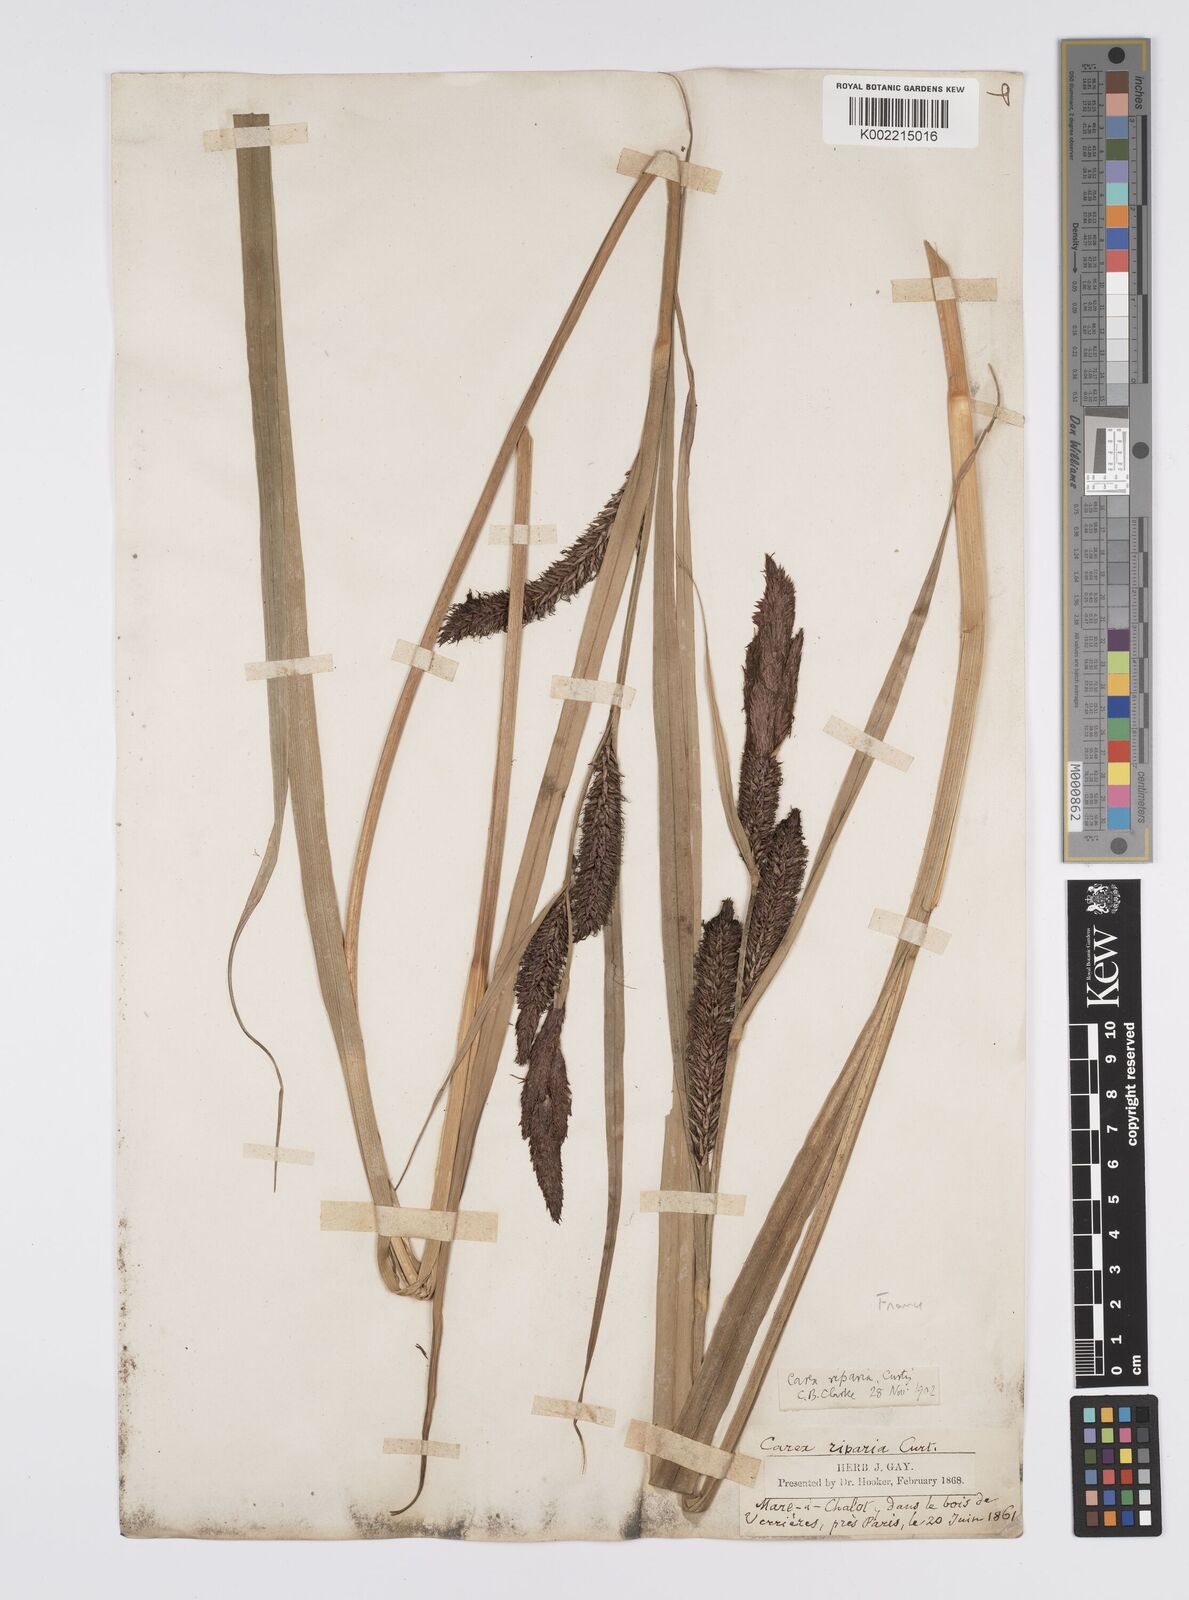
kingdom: Plantae
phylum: Tracheophyta
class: Liliopsida
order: Poales
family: Cyperaceae
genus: Carex
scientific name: Carex riparia
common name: Greater pond-sedge
